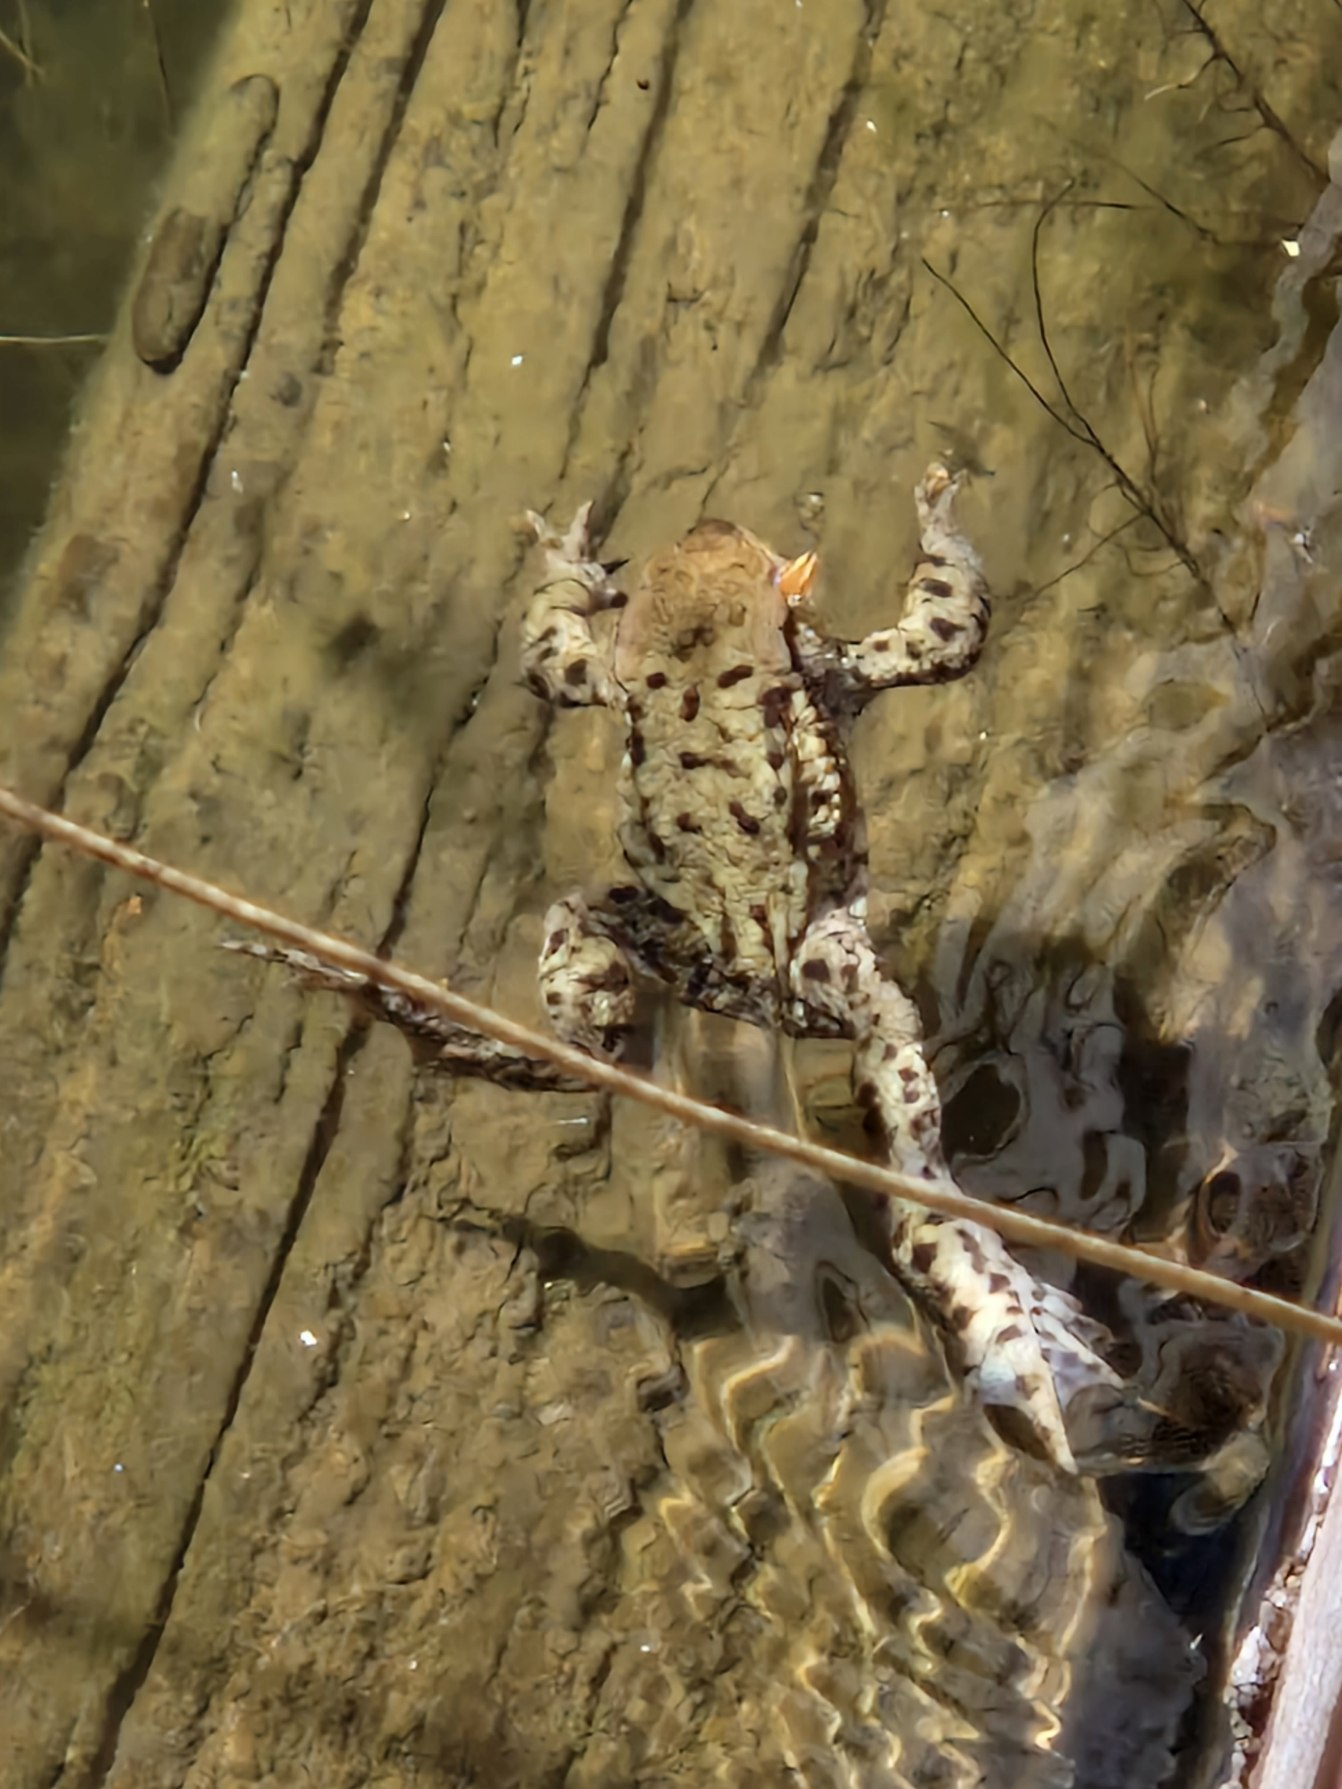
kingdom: Animalia
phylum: Chordata
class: Amphibia
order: Anura
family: Bufonidae
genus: Bufo
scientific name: Bufo bufo
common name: Skrubtudse
